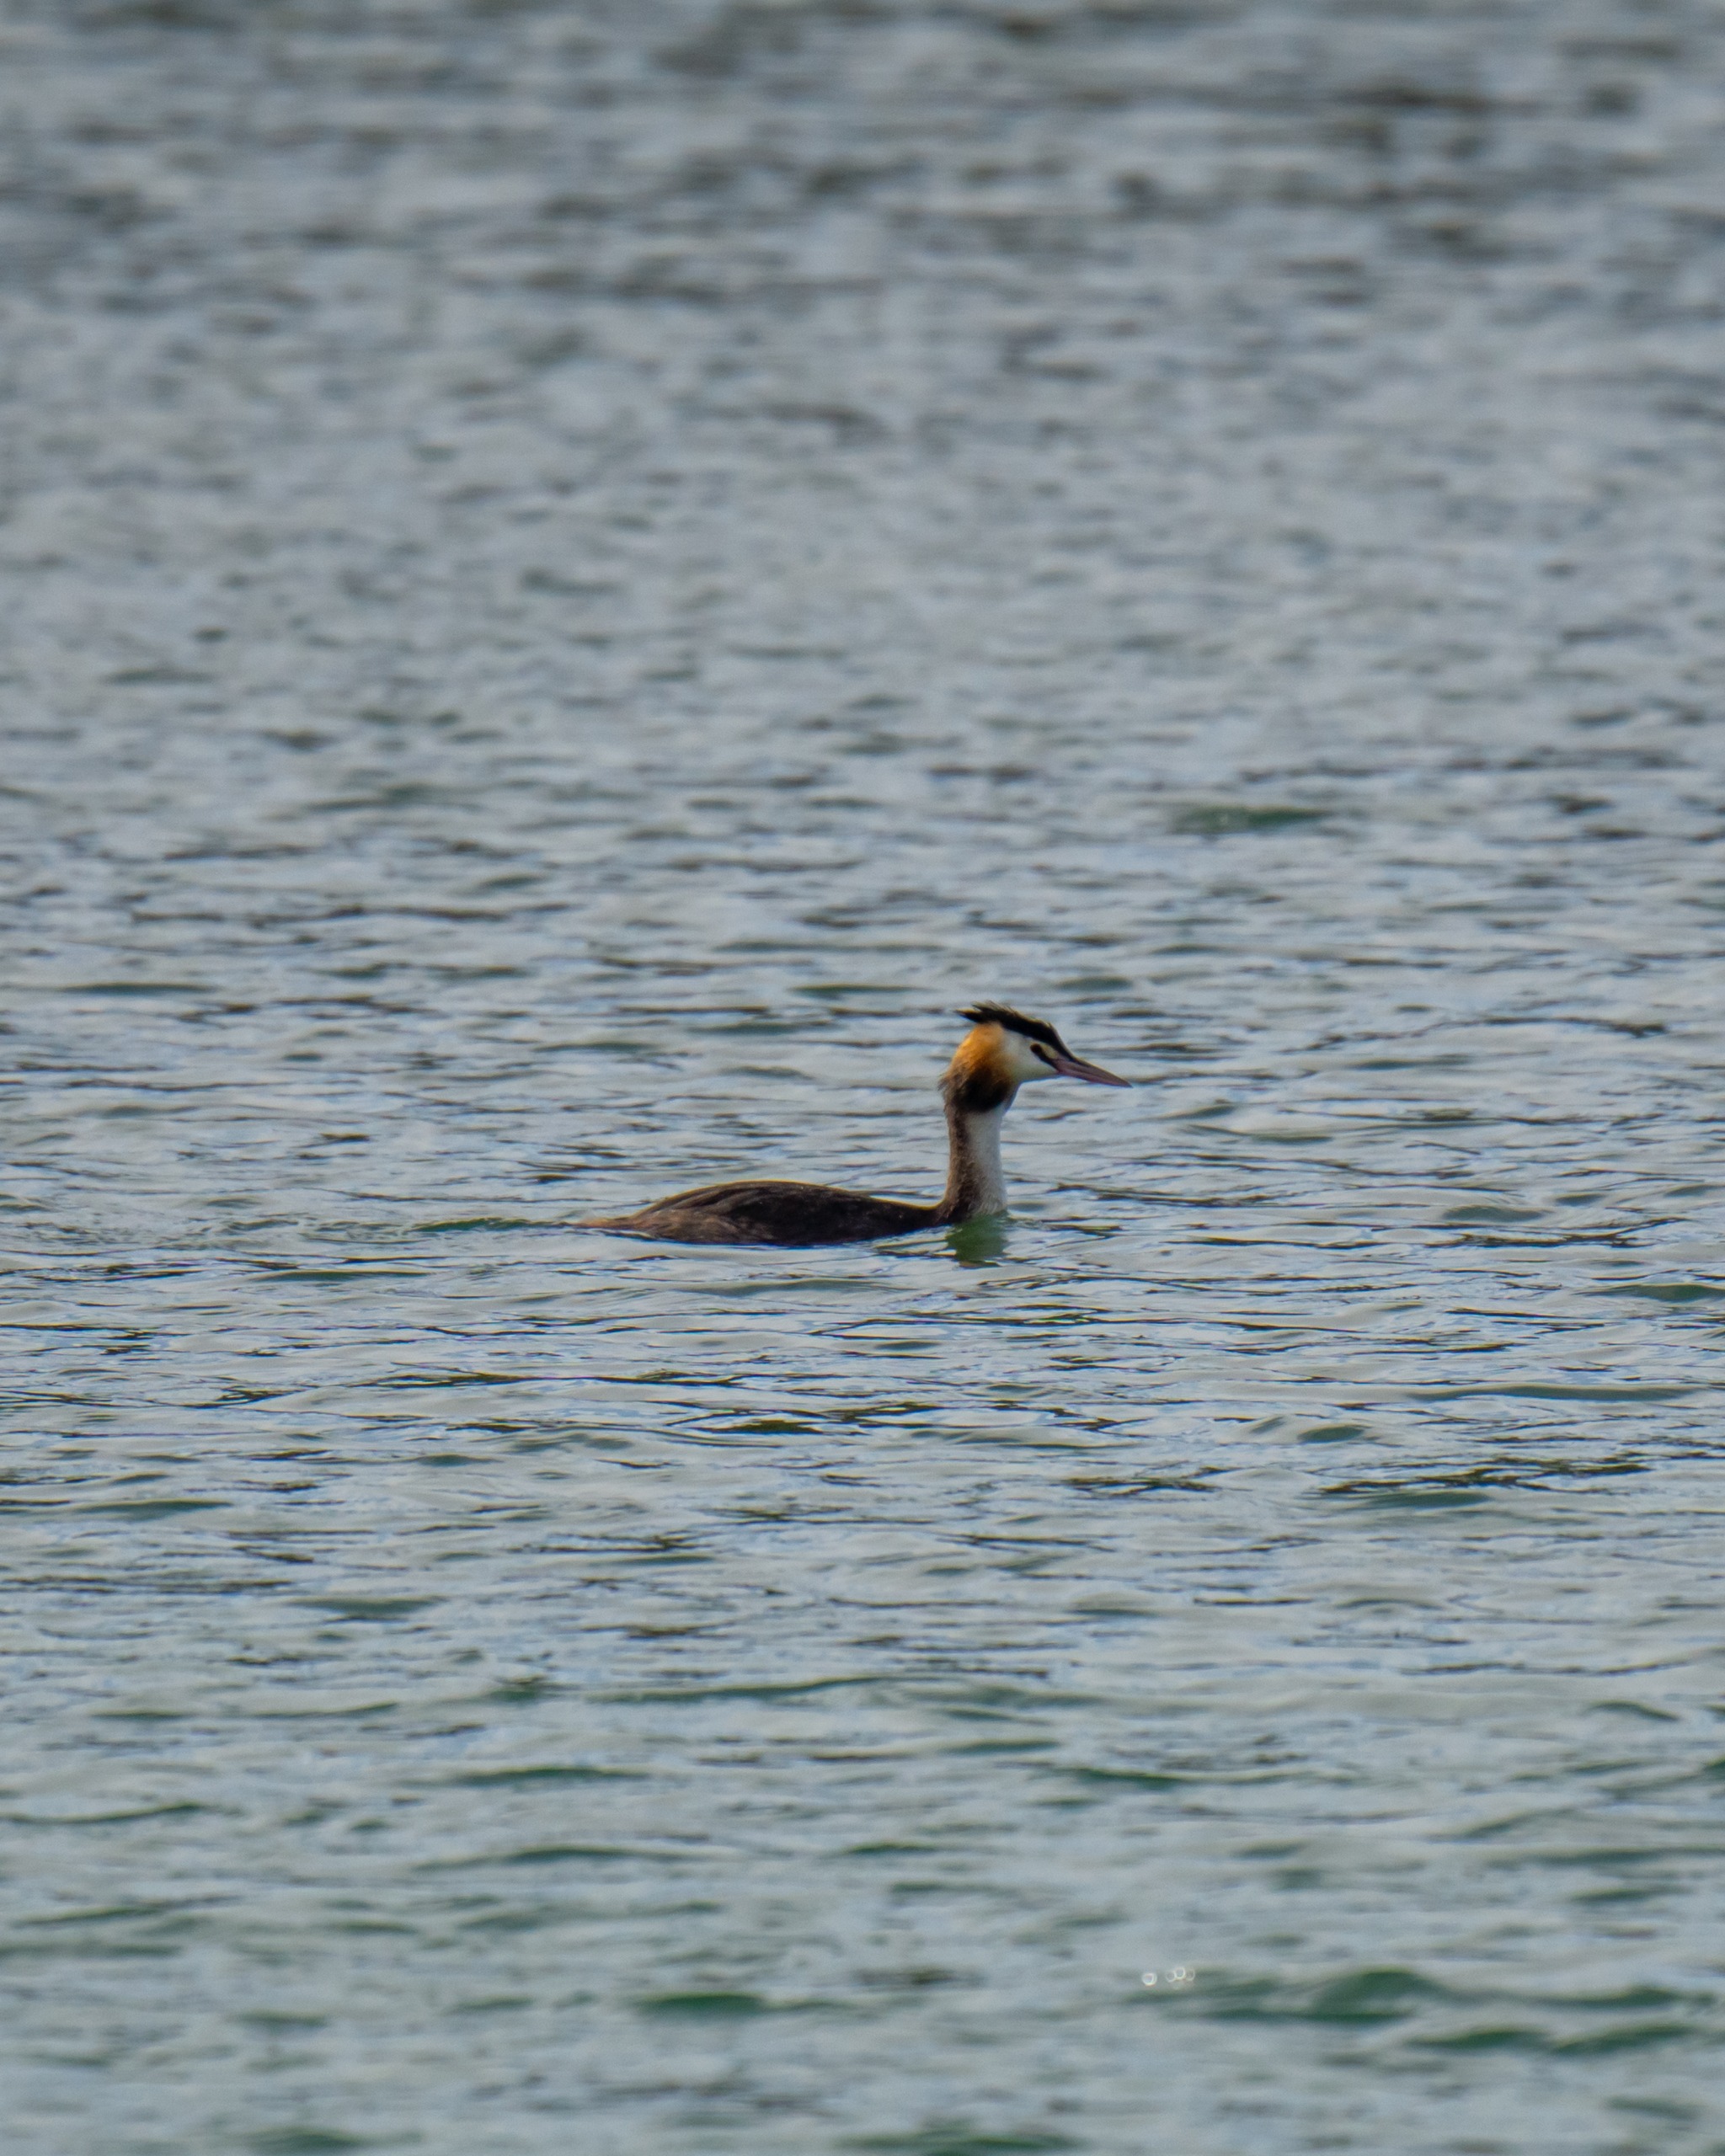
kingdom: Animalia
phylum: Chordata
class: Aves
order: Podicipediformes
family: Podicipedidae
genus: Podiceps
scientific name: Podiceps cristatus
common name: Toppet lappedykker
